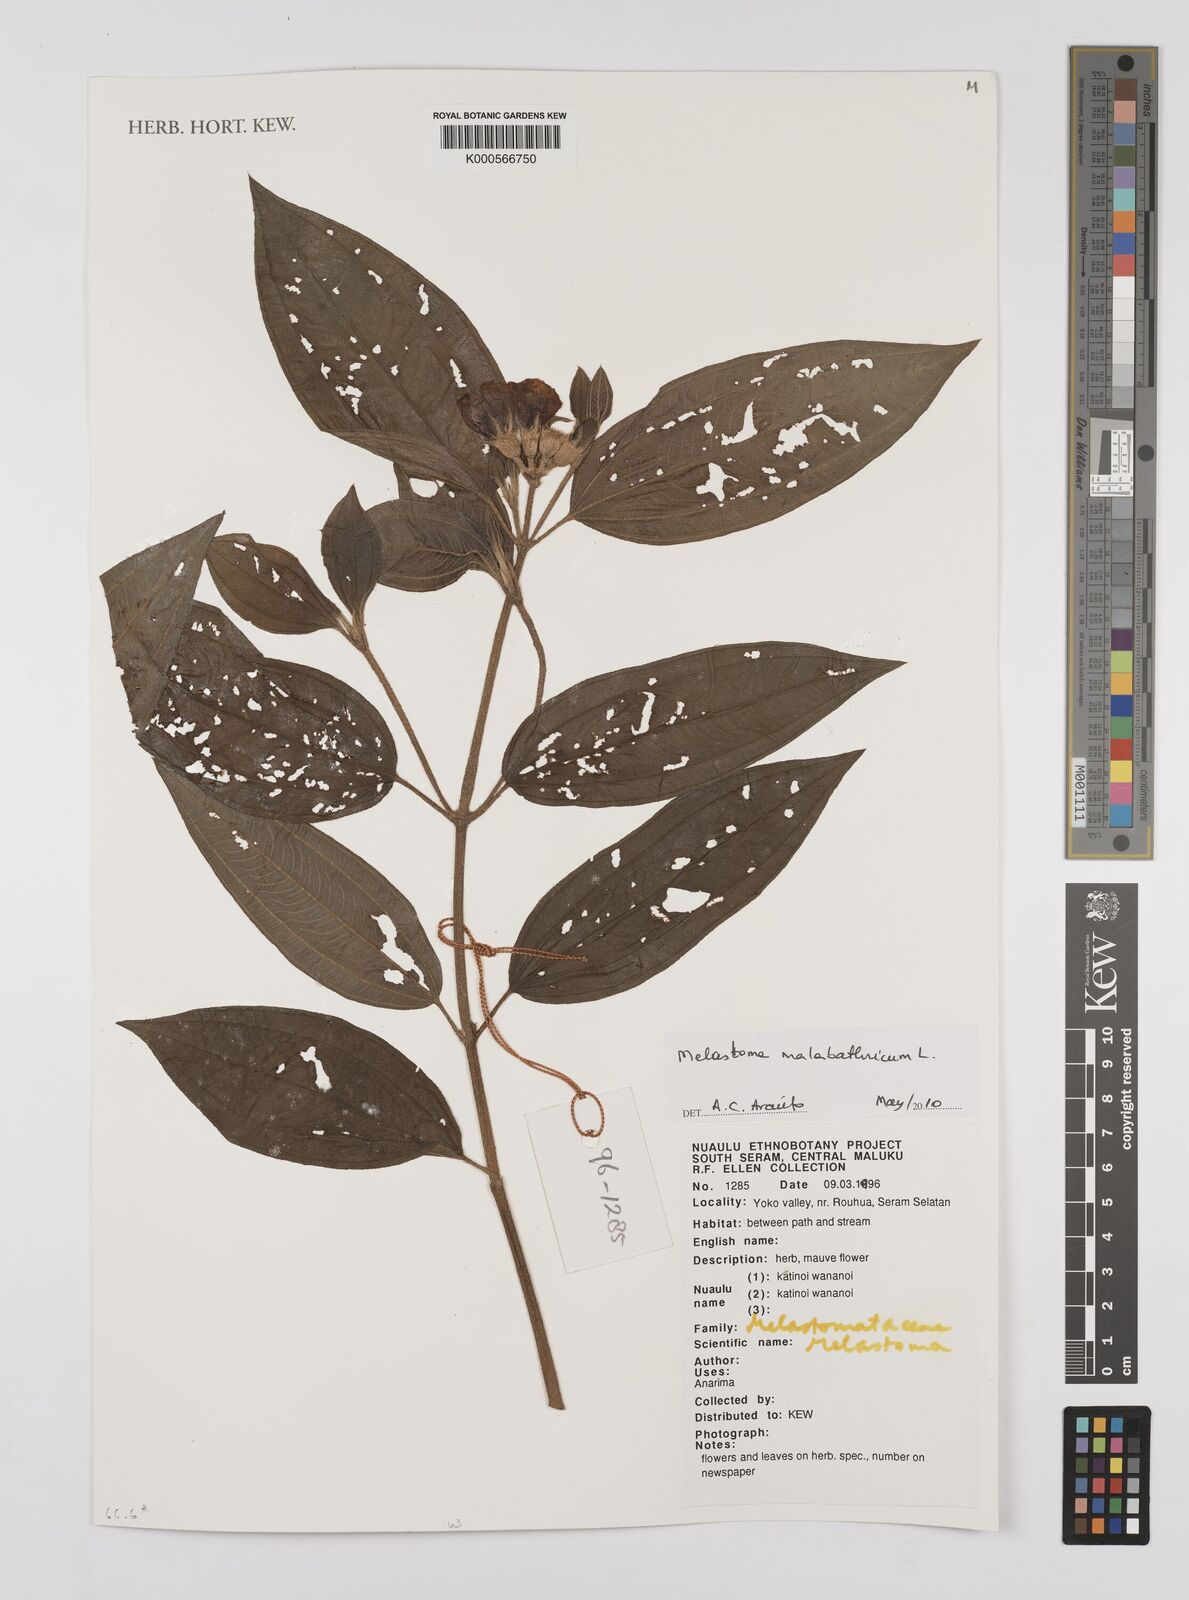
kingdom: Plantae
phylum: Tracheophyta
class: Magnoliopsida
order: Myrtales
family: Melastomataceae
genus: Melastoma
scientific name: Melastoma malabathricum
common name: Indian-rhododendron
